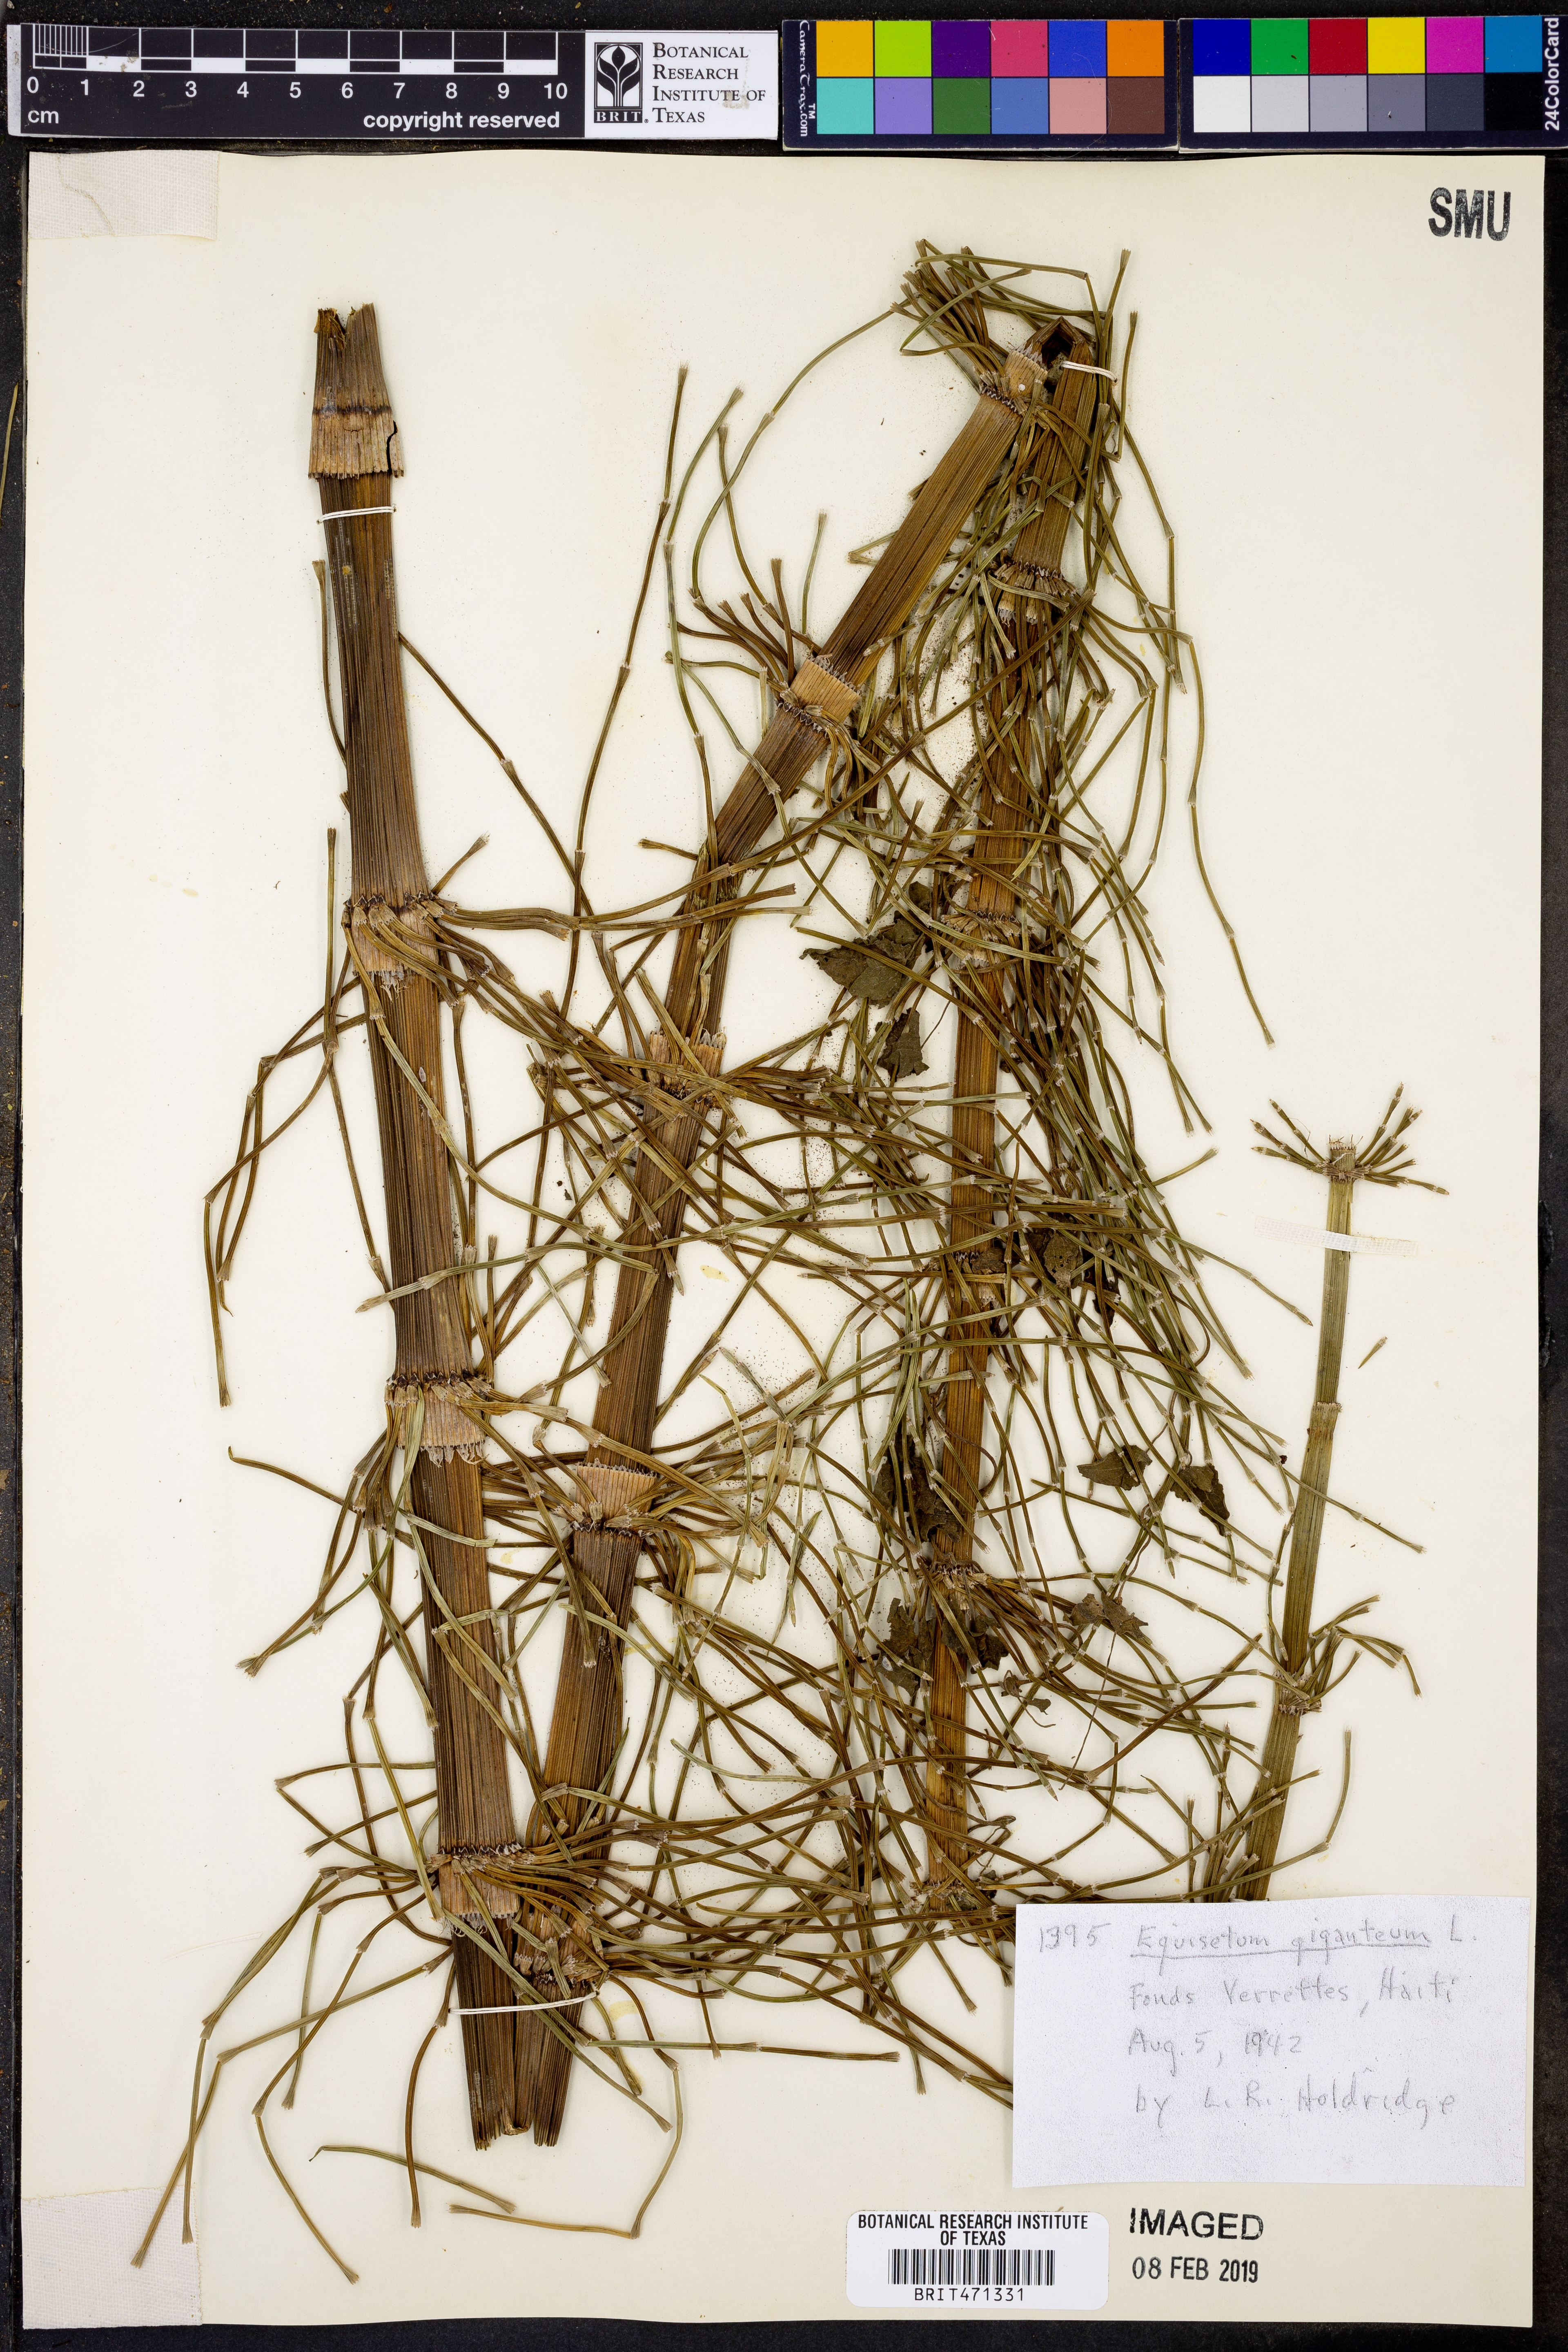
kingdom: Plantae
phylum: Tracheophyta
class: Polypodiopsida
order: Equisetales
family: Equisetaceae
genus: Equisetum
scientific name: Equisetum giganteum
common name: Giant horsetail
